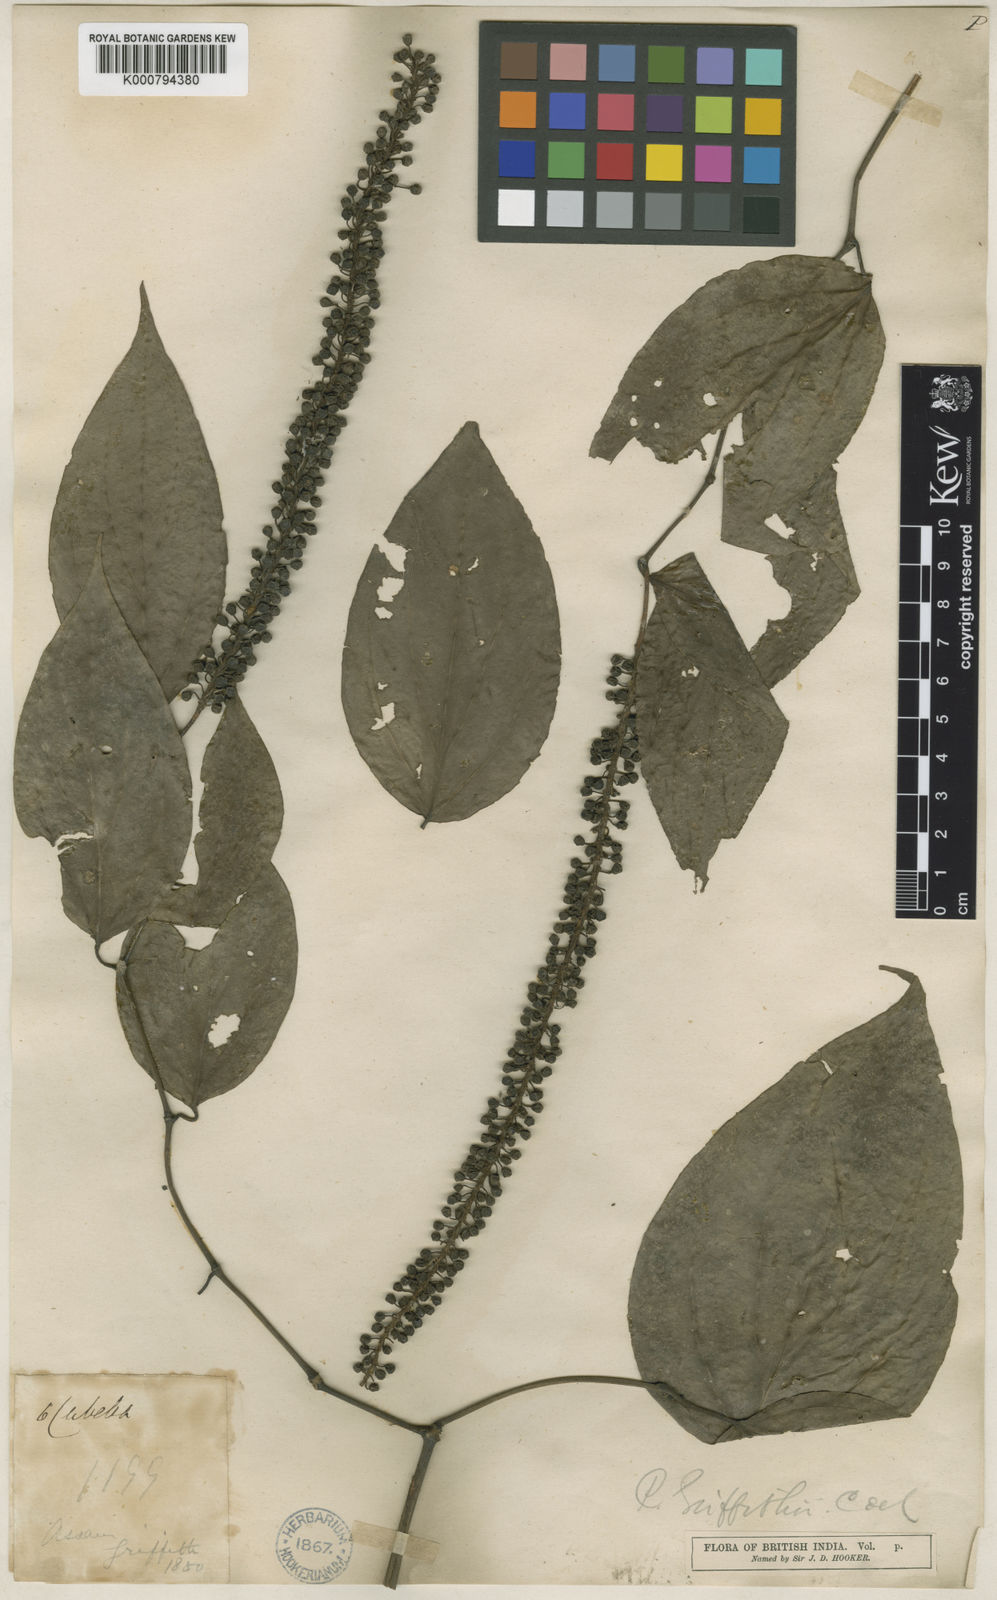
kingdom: Plantae
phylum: Tracheophyta
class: Magnoliopsida
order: Piperales
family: Piperaceae
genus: Piper
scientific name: Piper griffithii
